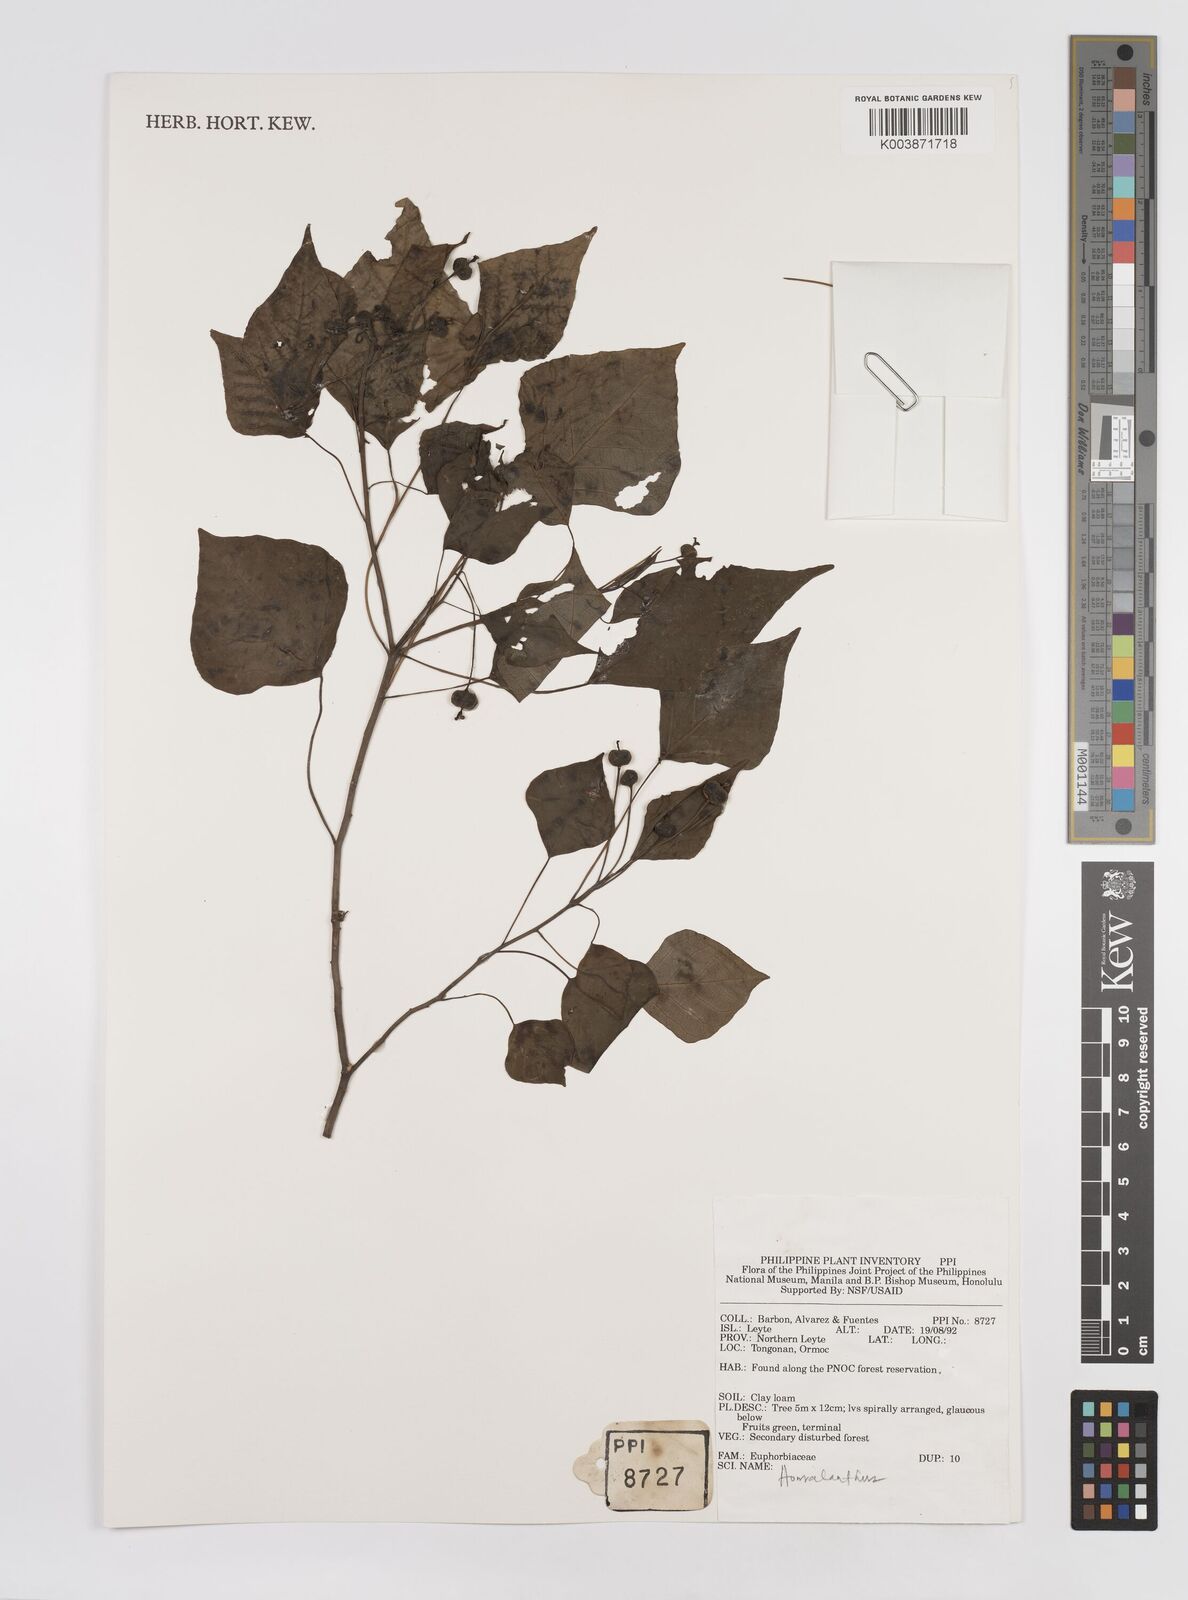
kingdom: Plantae
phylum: Tracheophyta
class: Magnoliopsida
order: Malpighiales
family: Euphorbiaceae
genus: Homalanthus
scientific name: Homalanthus populneus
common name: Spurge
